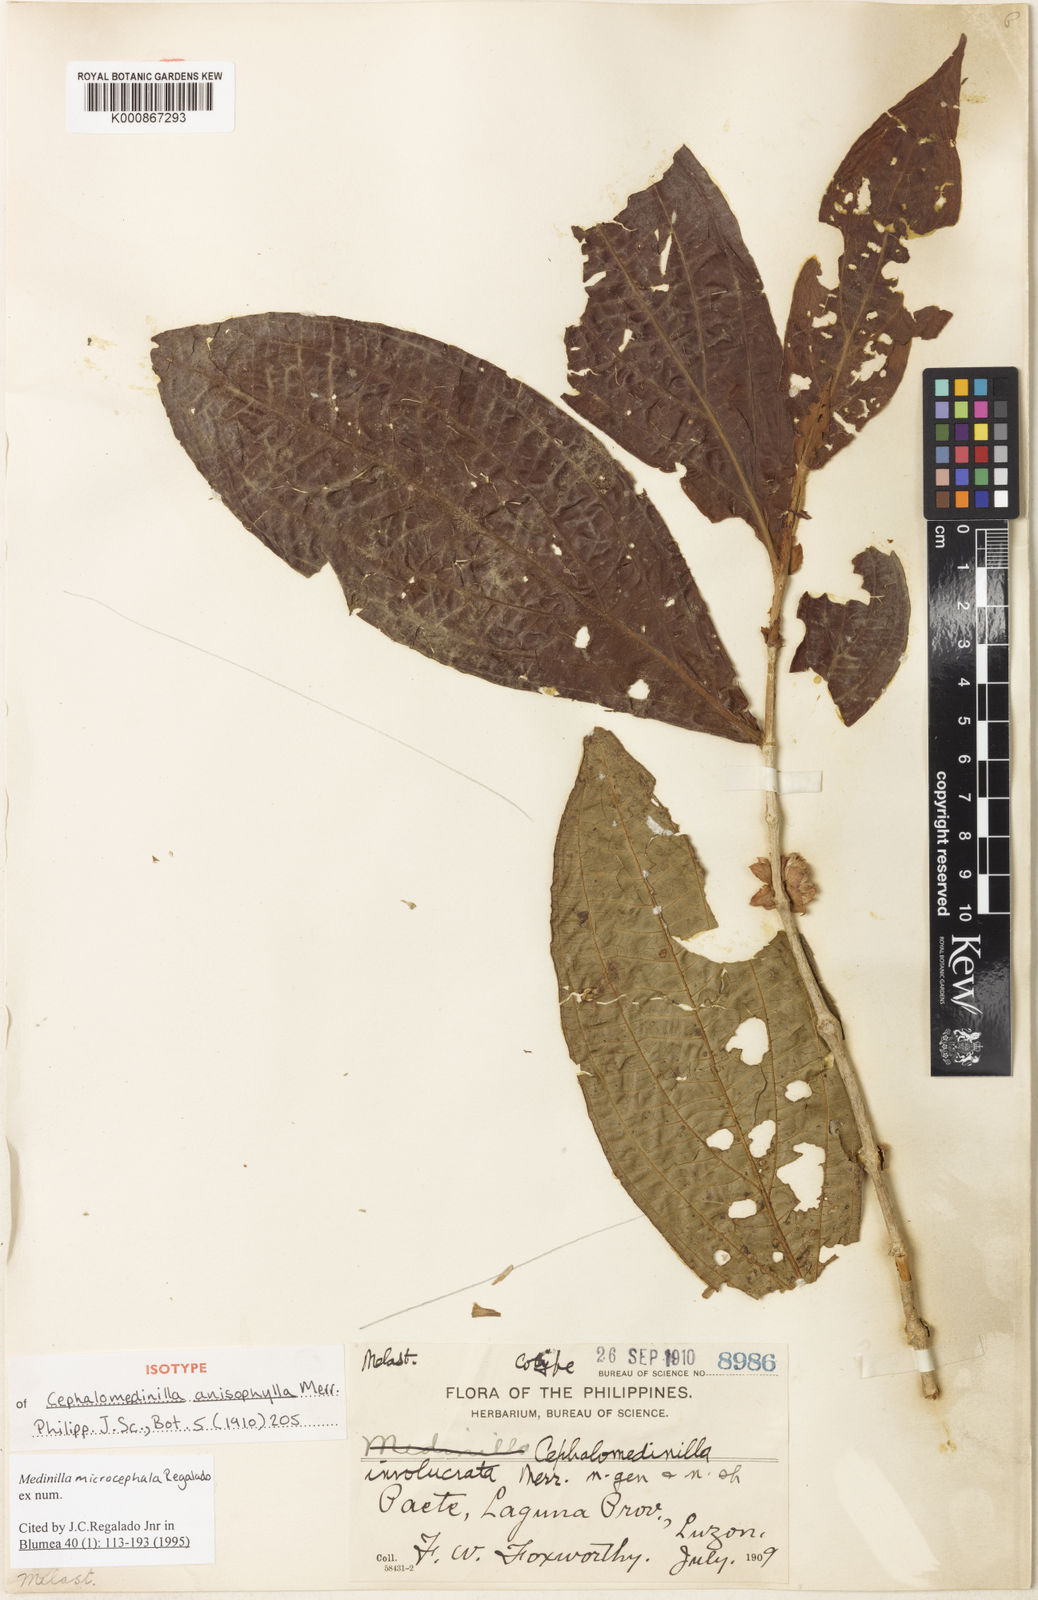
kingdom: Plantae
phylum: Tracheophyta
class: Magnoliopsida
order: Myrtales
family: Melastomataceae
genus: Medinilla
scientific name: Medinilla microcephala
